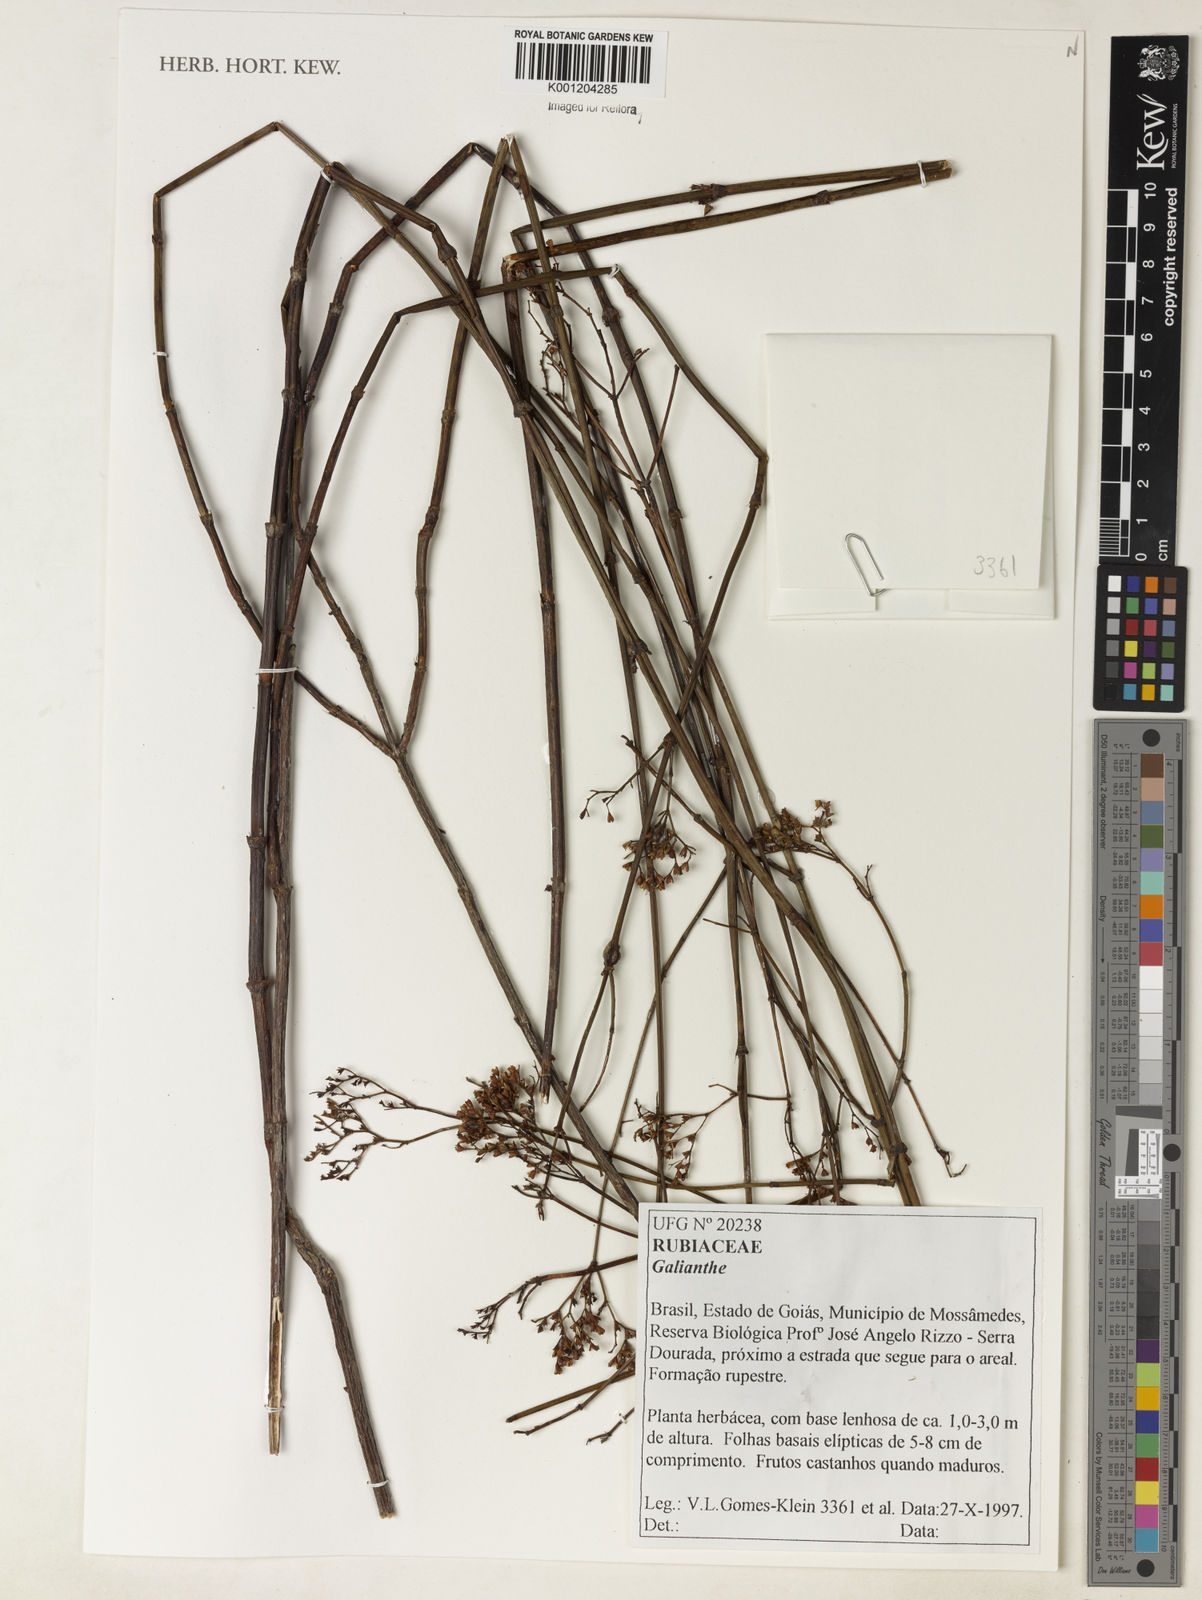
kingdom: Plantae
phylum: Tracheophyta
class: Magnoliopsida
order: Gentianales
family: Rubiaceae
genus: Galianthe
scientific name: Galianthe
